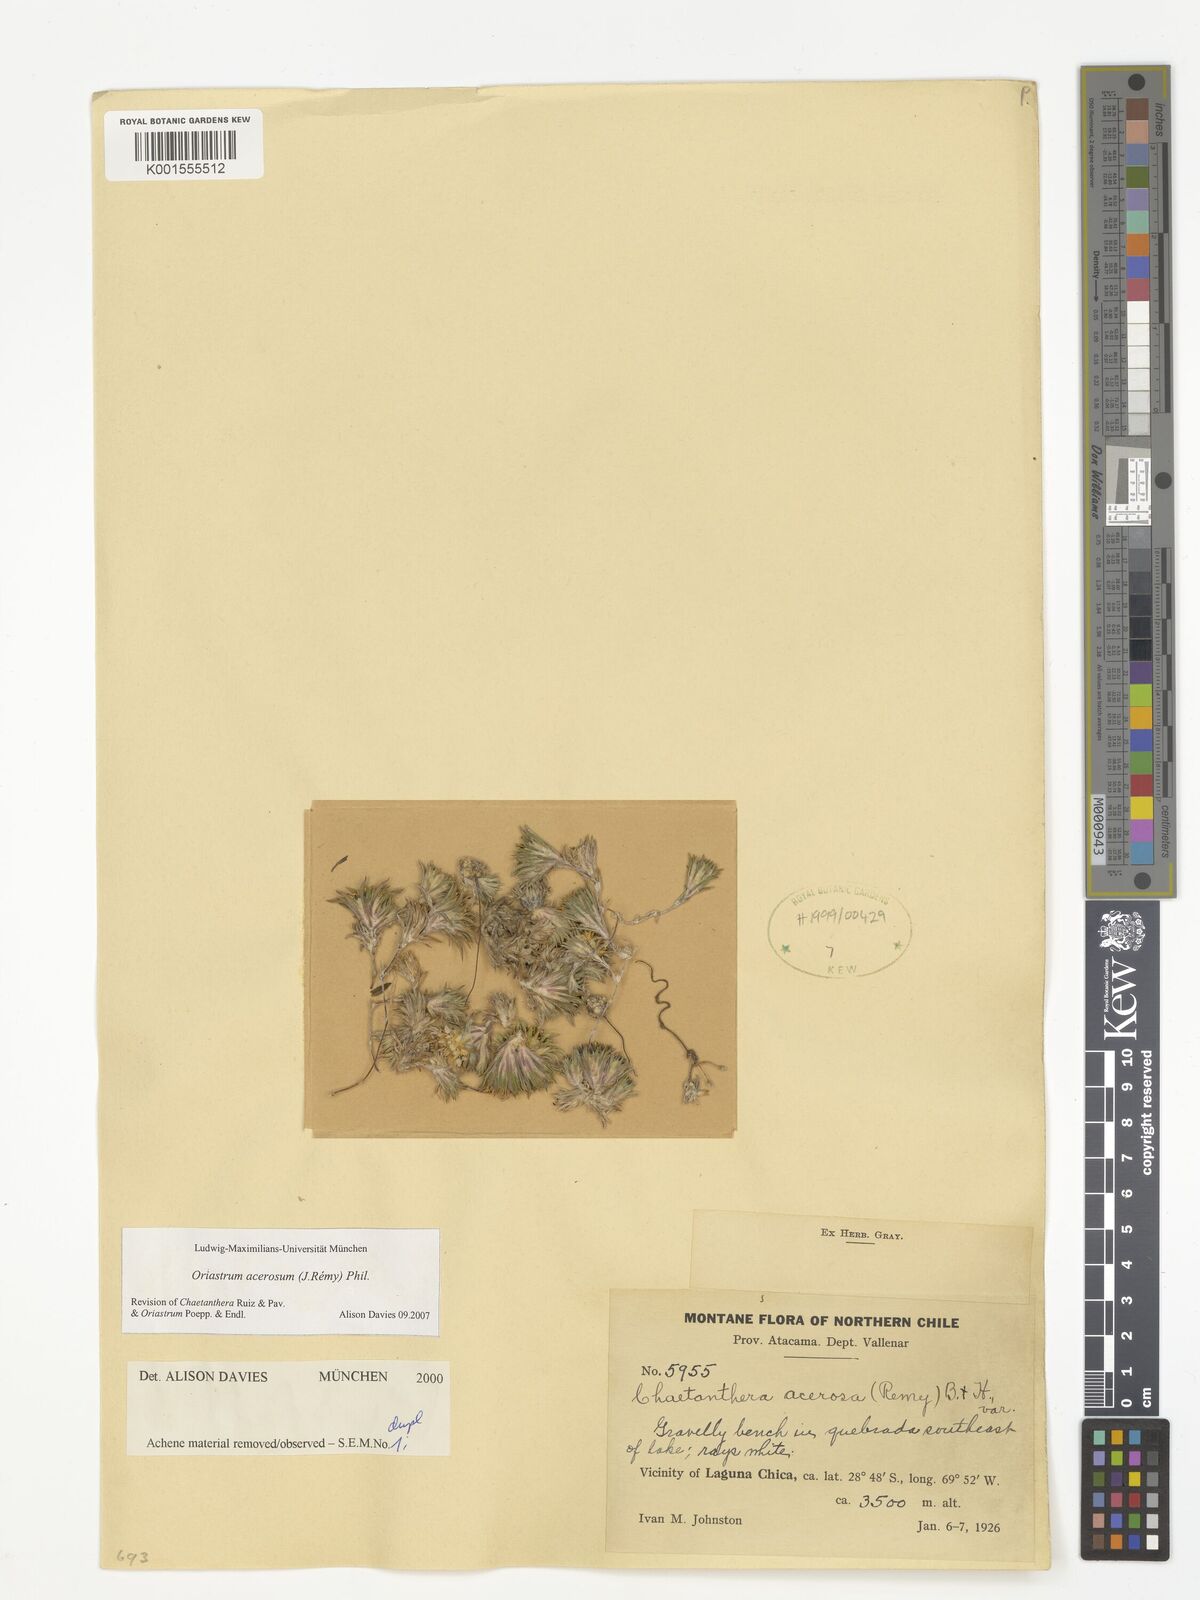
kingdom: Plantae
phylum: Tracheophyta
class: Magnoliopsida
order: Asterales
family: Asteraceae
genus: Oriastrum
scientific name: Oriastrum acerosum
